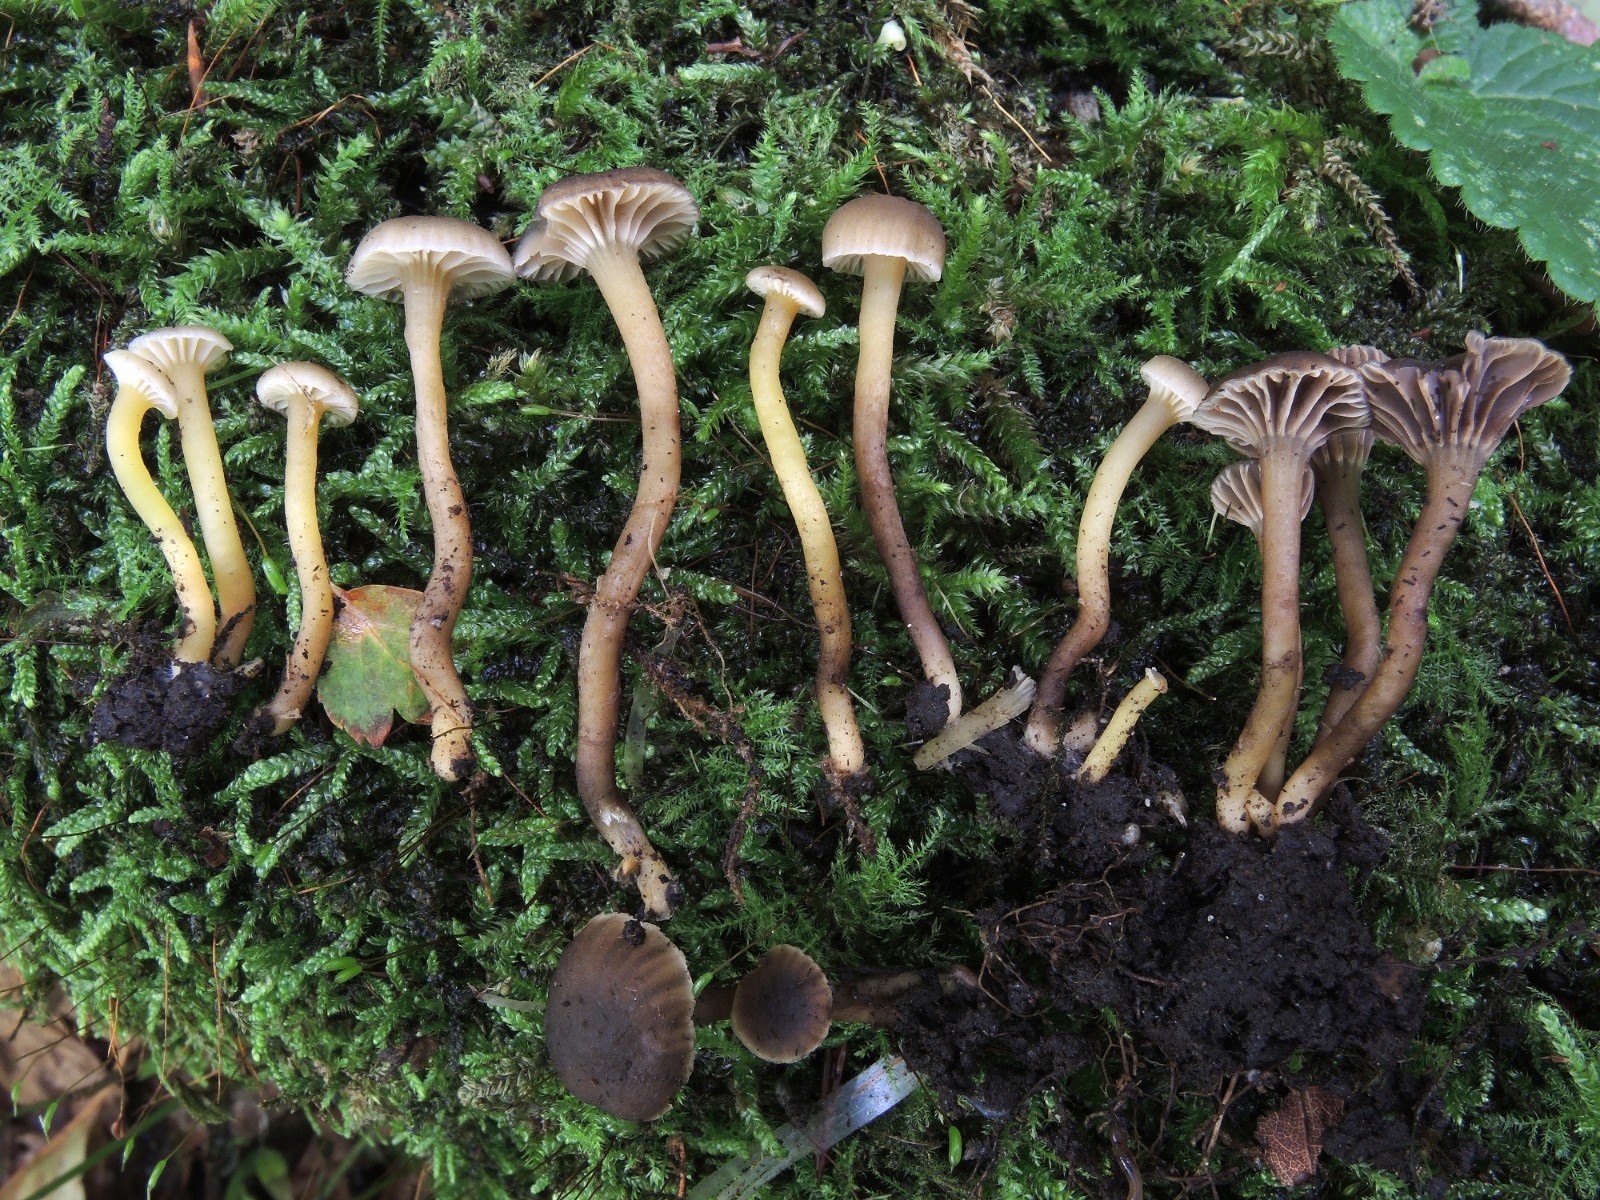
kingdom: Fungi
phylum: Basidiomycota
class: Agaricomycetes
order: Agaricales
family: Clavariaceae
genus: Hodophilus
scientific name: Hodophilus phaeoxanthus
